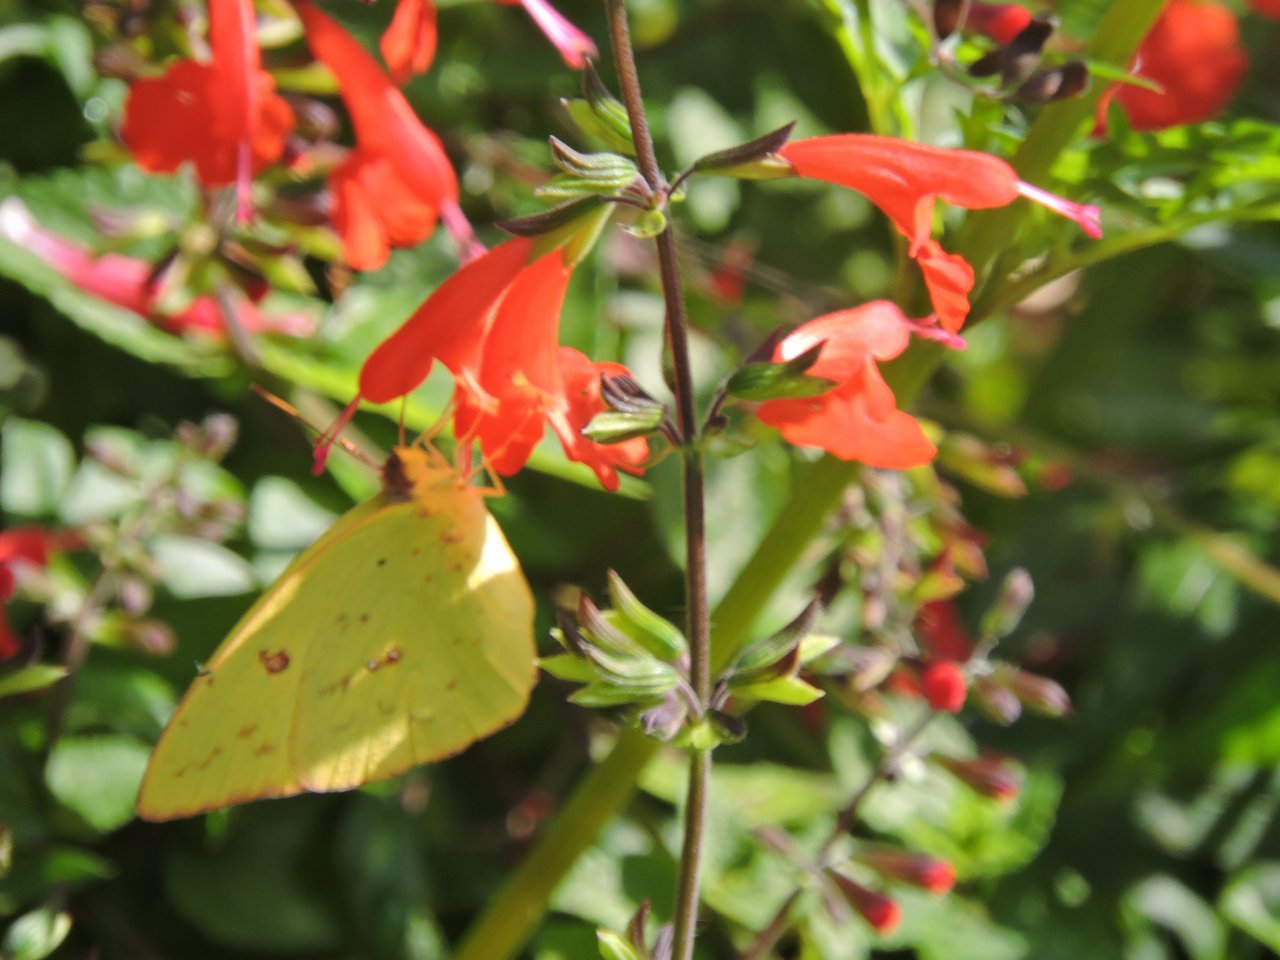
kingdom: Animalia
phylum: Arthropoda
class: Insecta
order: Lepidoptera
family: Pieridae
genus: Phoebis
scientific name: Phoebis sennae
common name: Cloudless Sulphur
